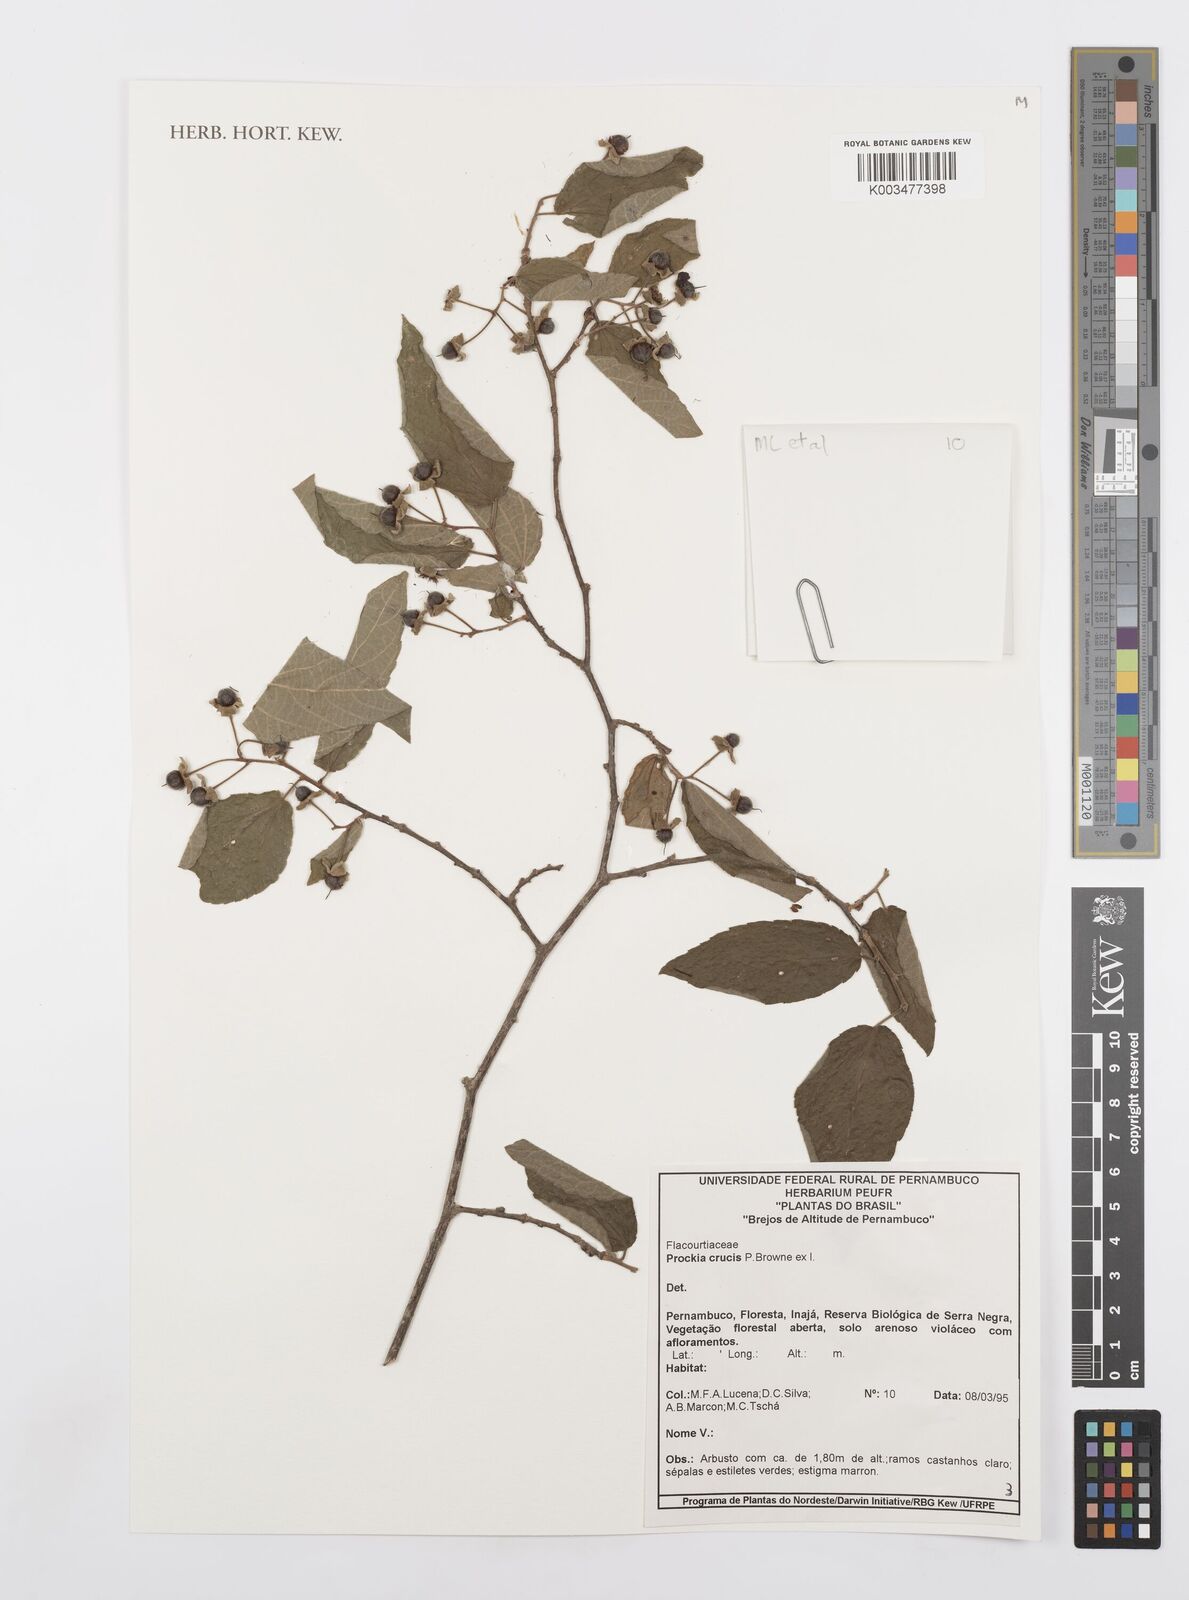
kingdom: Plantae
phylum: Tracheophyta
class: Magnoliopsida
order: Malpighiales
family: Salicaceae
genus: Prockia
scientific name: Prockia crucis
